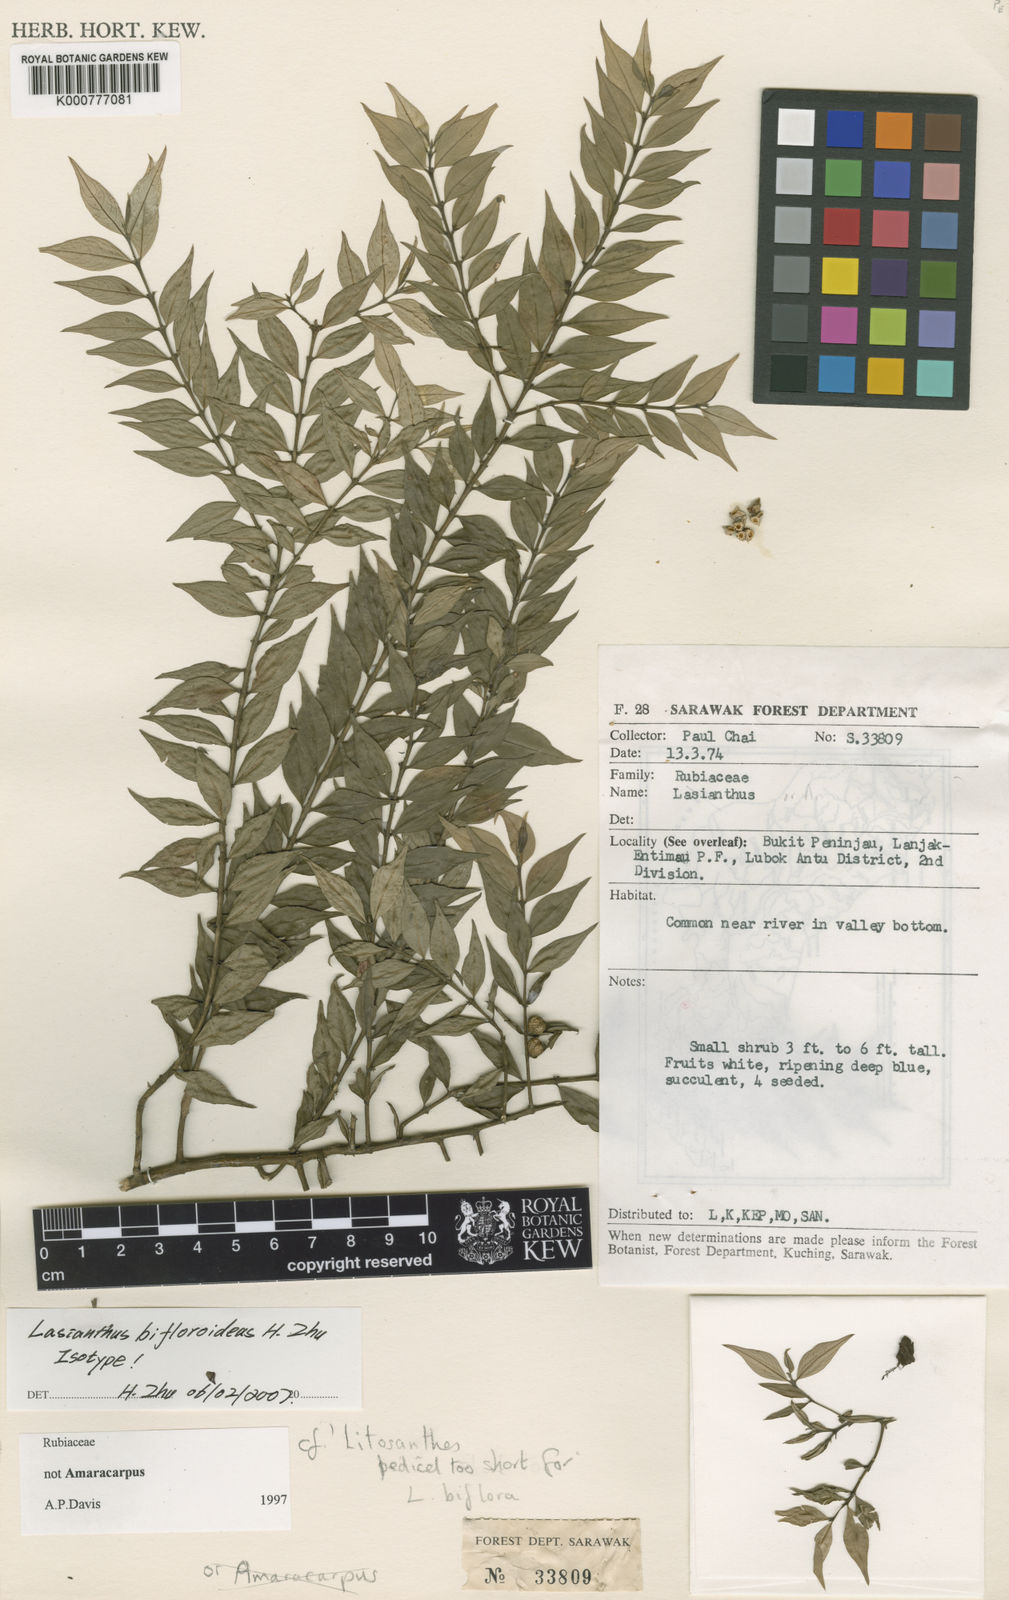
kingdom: Plantae
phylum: Tracheophyta
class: Magnoliopsida
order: Gentianales
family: Rubiaceae
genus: Lasianthus
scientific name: Lasianthus
